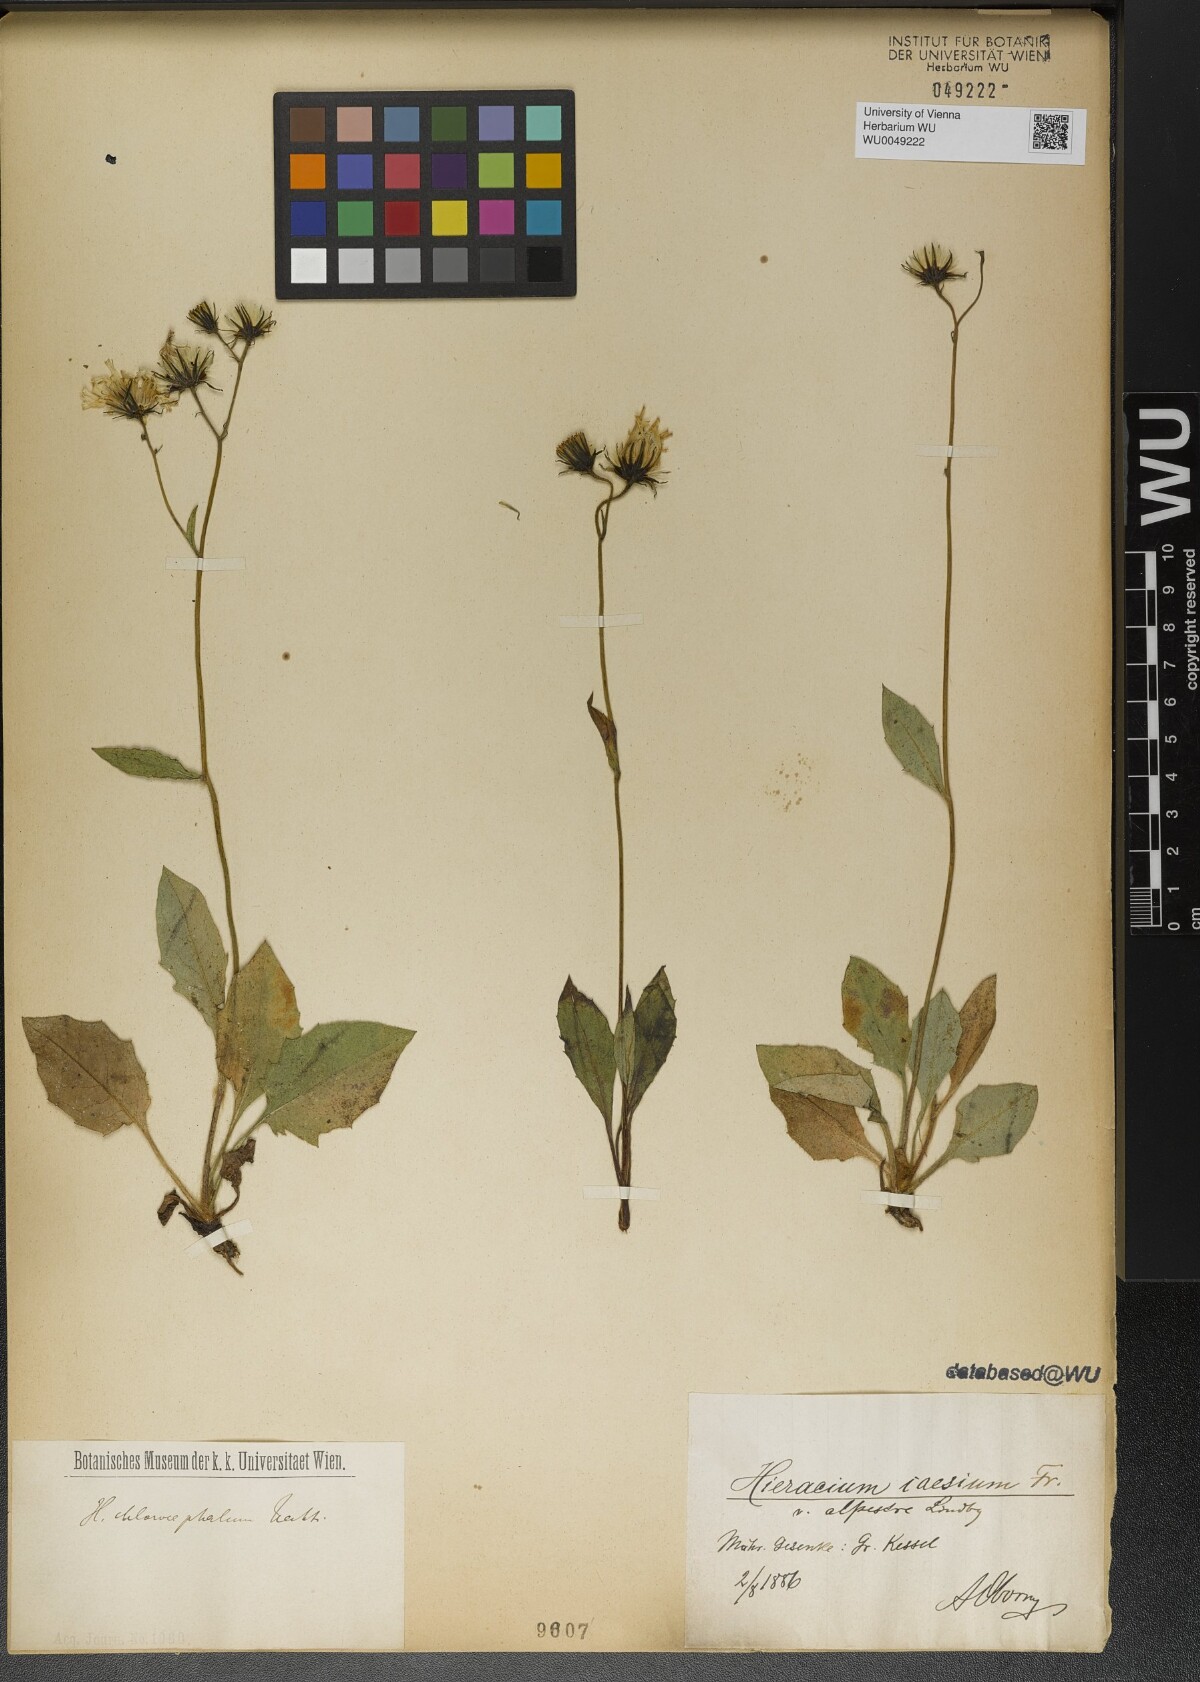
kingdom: Plantae
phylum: Tracheophyta
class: Magnoliopsida
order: Asterales
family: Asteraceae
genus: Hieracium
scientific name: Hieracium chlorocephalum
